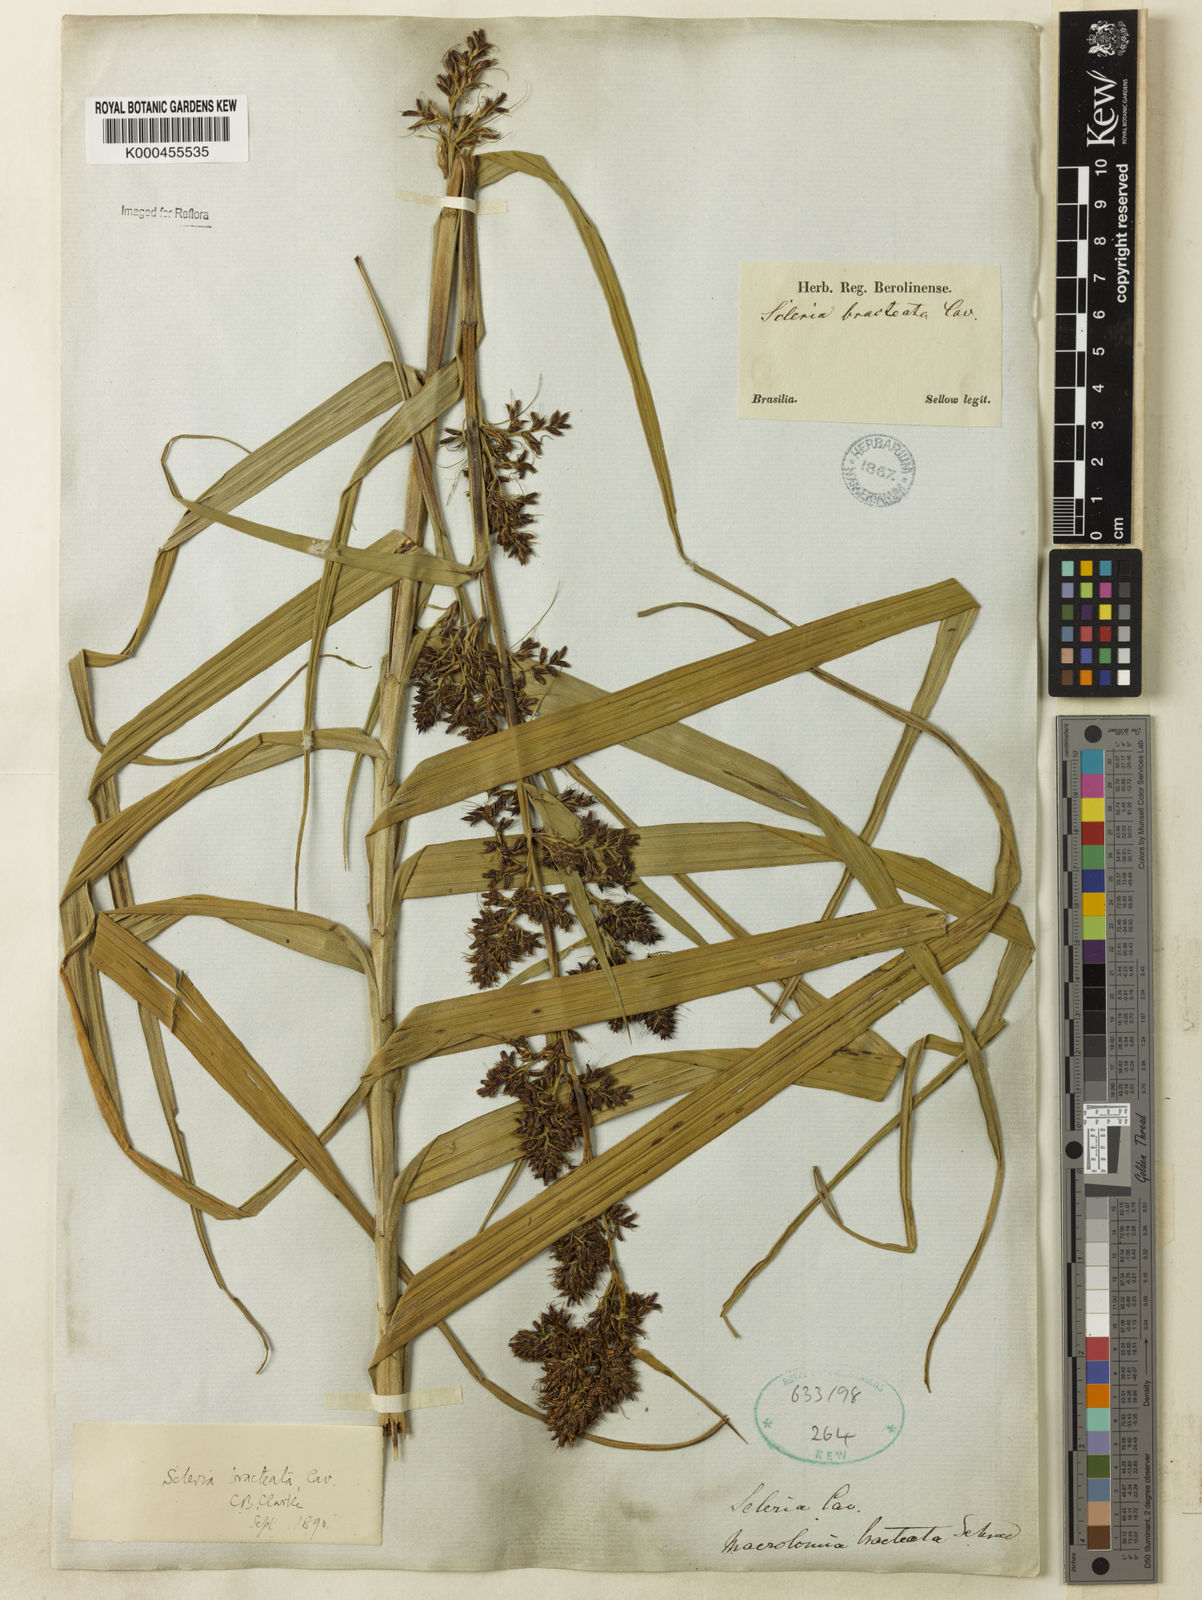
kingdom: Plantae
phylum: Tracheophyta
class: Liliopsida
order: Poales
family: Cyperaceae
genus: Scleria
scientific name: Scleria bracteata
